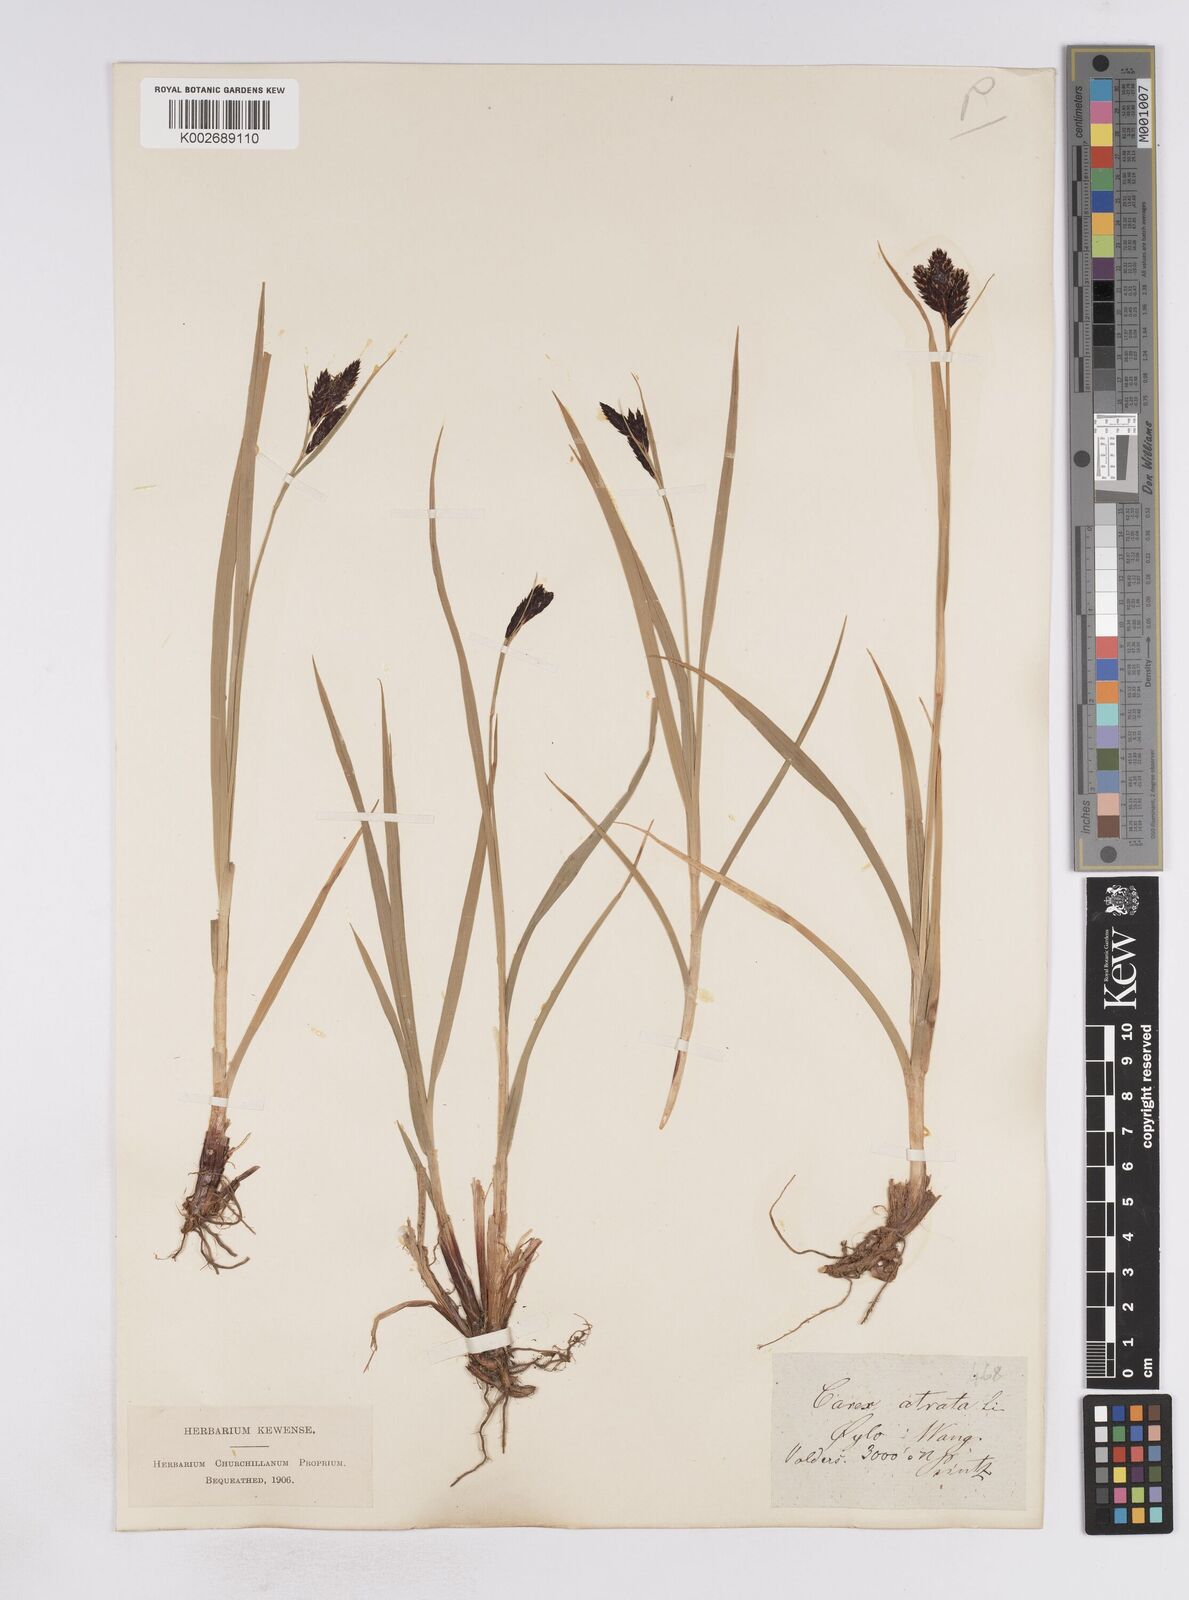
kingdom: Plantae
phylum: Tracheophyta
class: Liliopsida
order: Poales
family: Cyperaceae
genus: Carex
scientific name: Carex atrata
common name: Black alpine sedge
